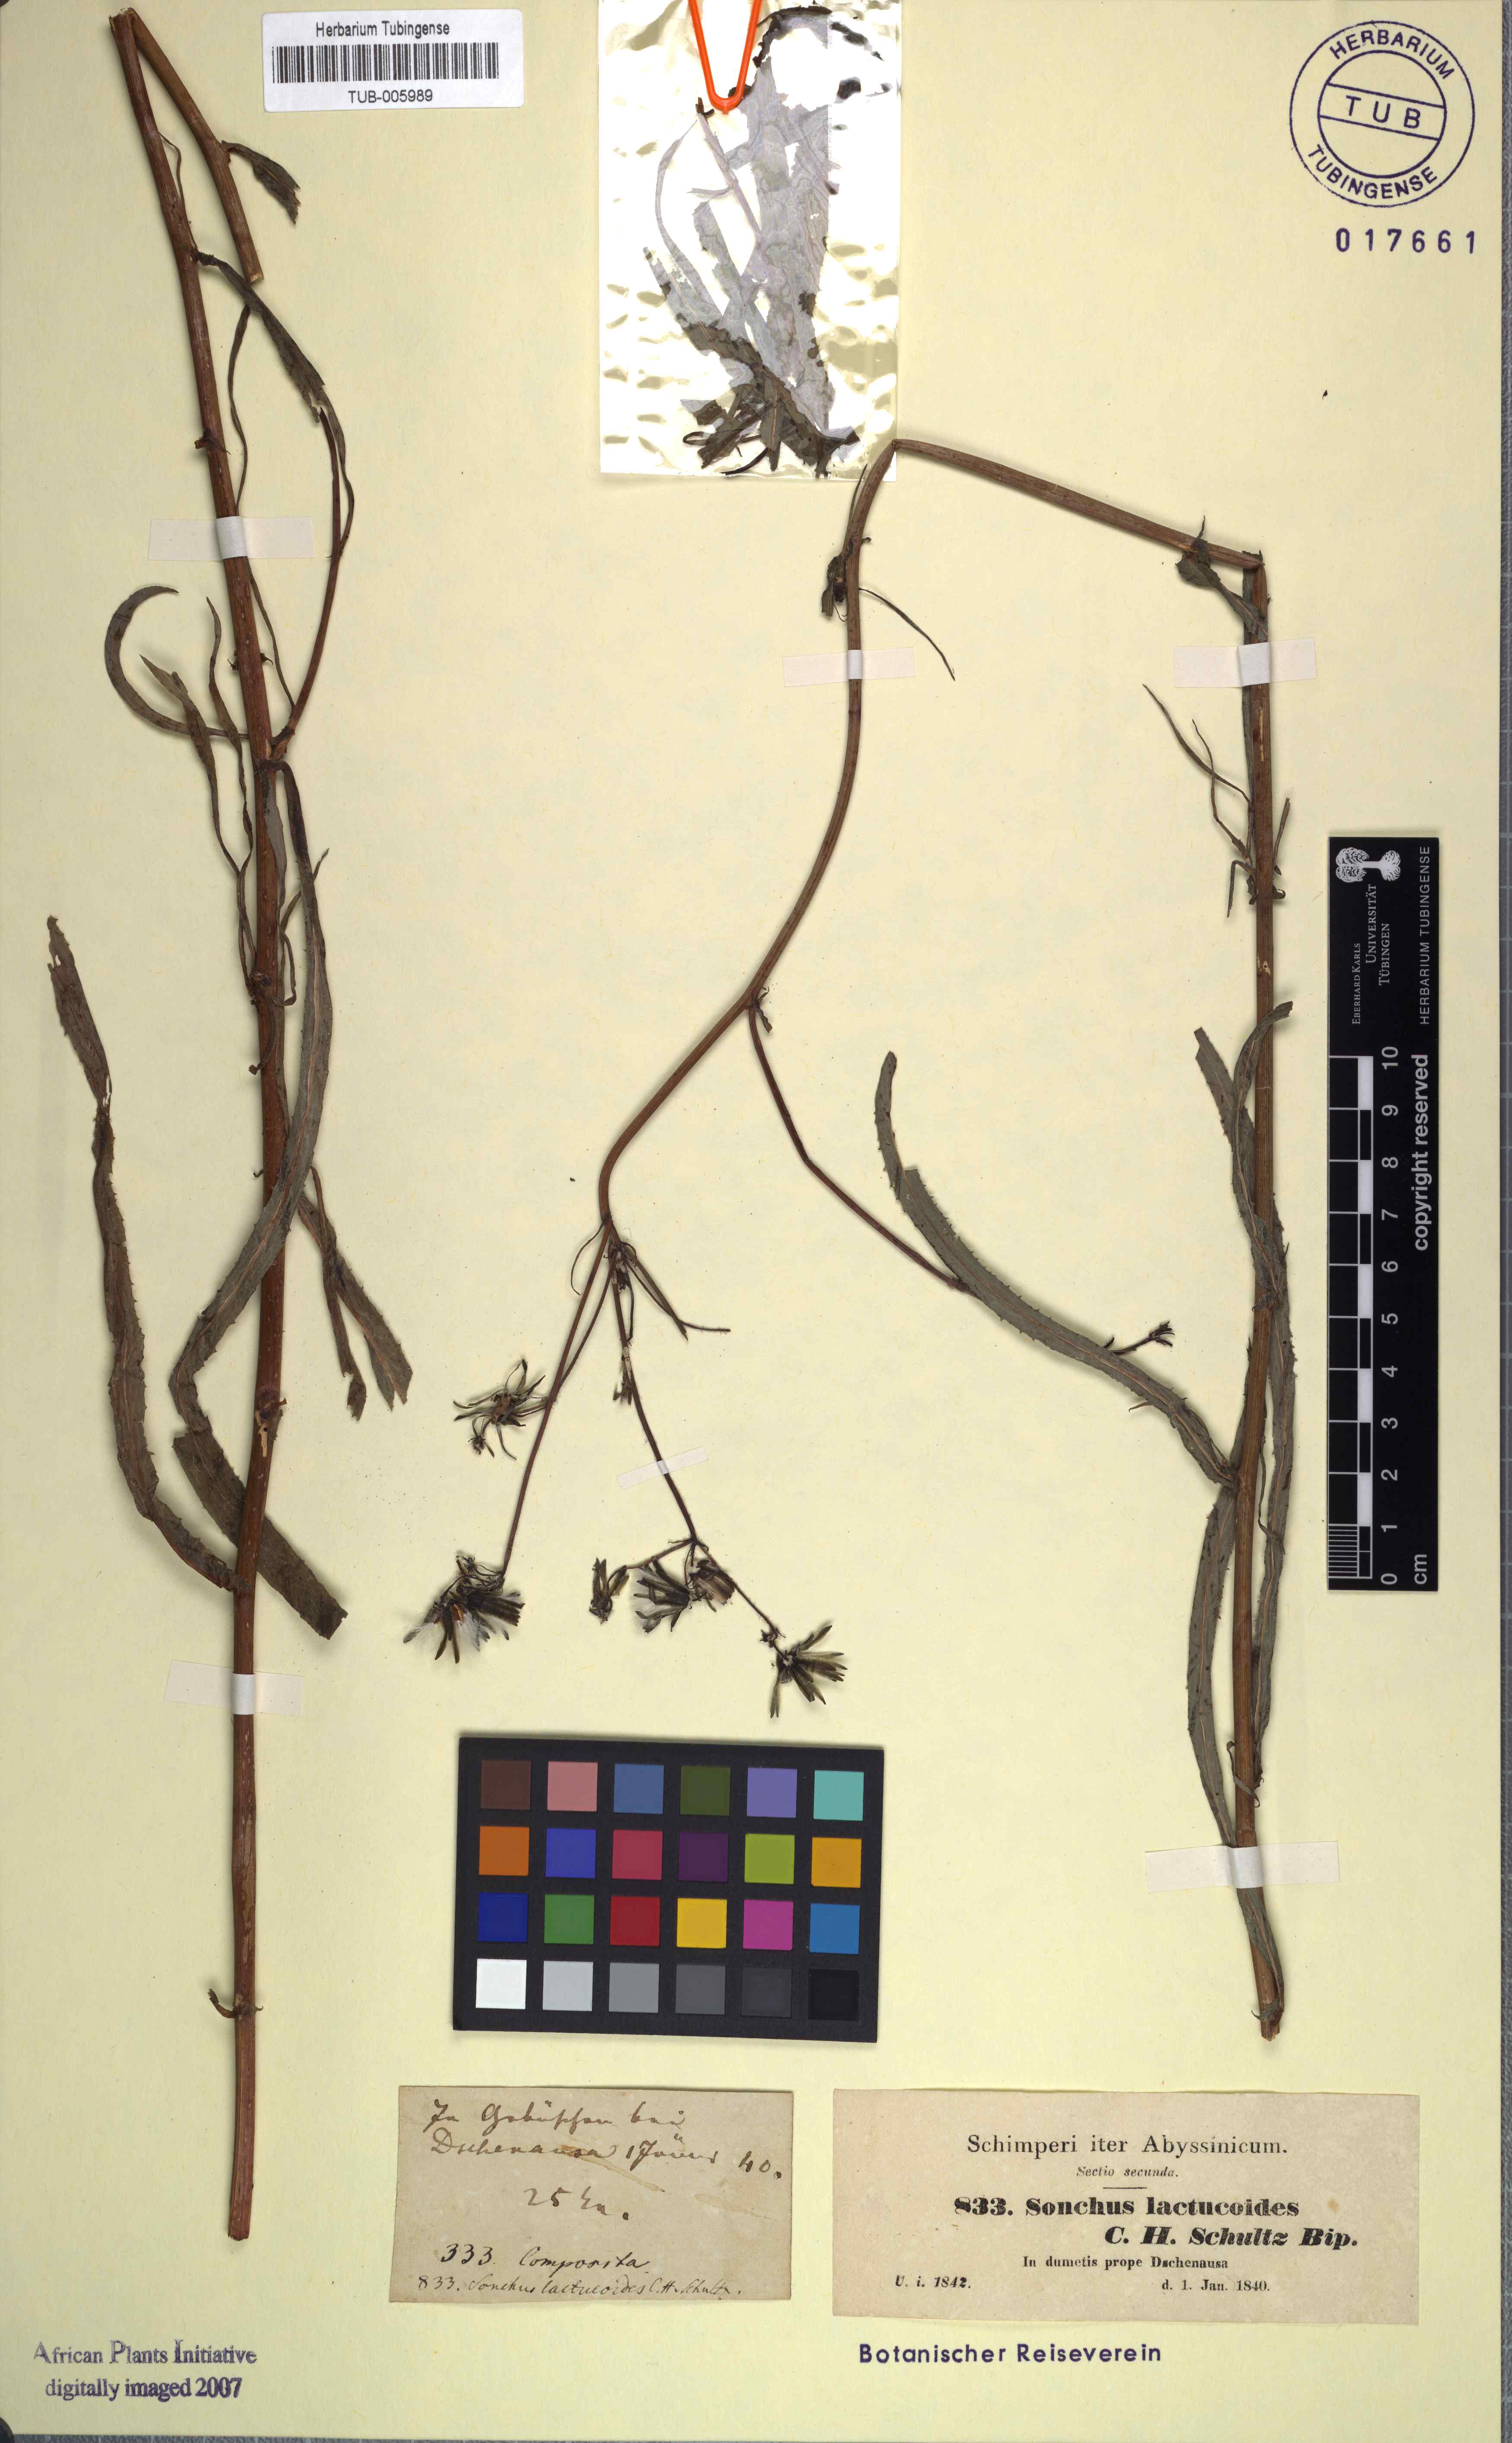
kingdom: Plantae
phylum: Tracheophyta
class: Magnoliopsida
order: Asterales
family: Asteraceae
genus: Lactuca
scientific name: Lactuca inermis
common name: Wild lettuce
